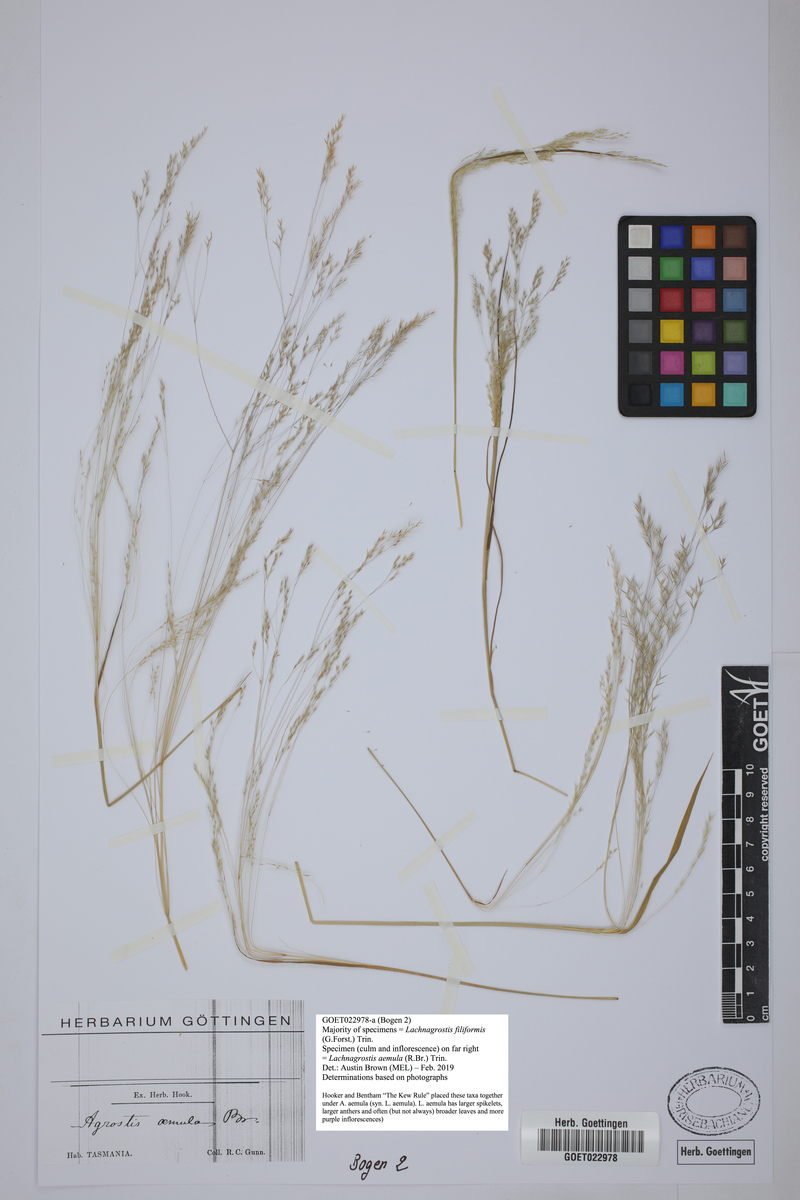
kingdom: Plantae
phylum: Tracheophyta
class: Liliopsida
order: Poales
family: Poaceae
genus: Lachnagrostis
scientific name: Lachnagrostis aemula
